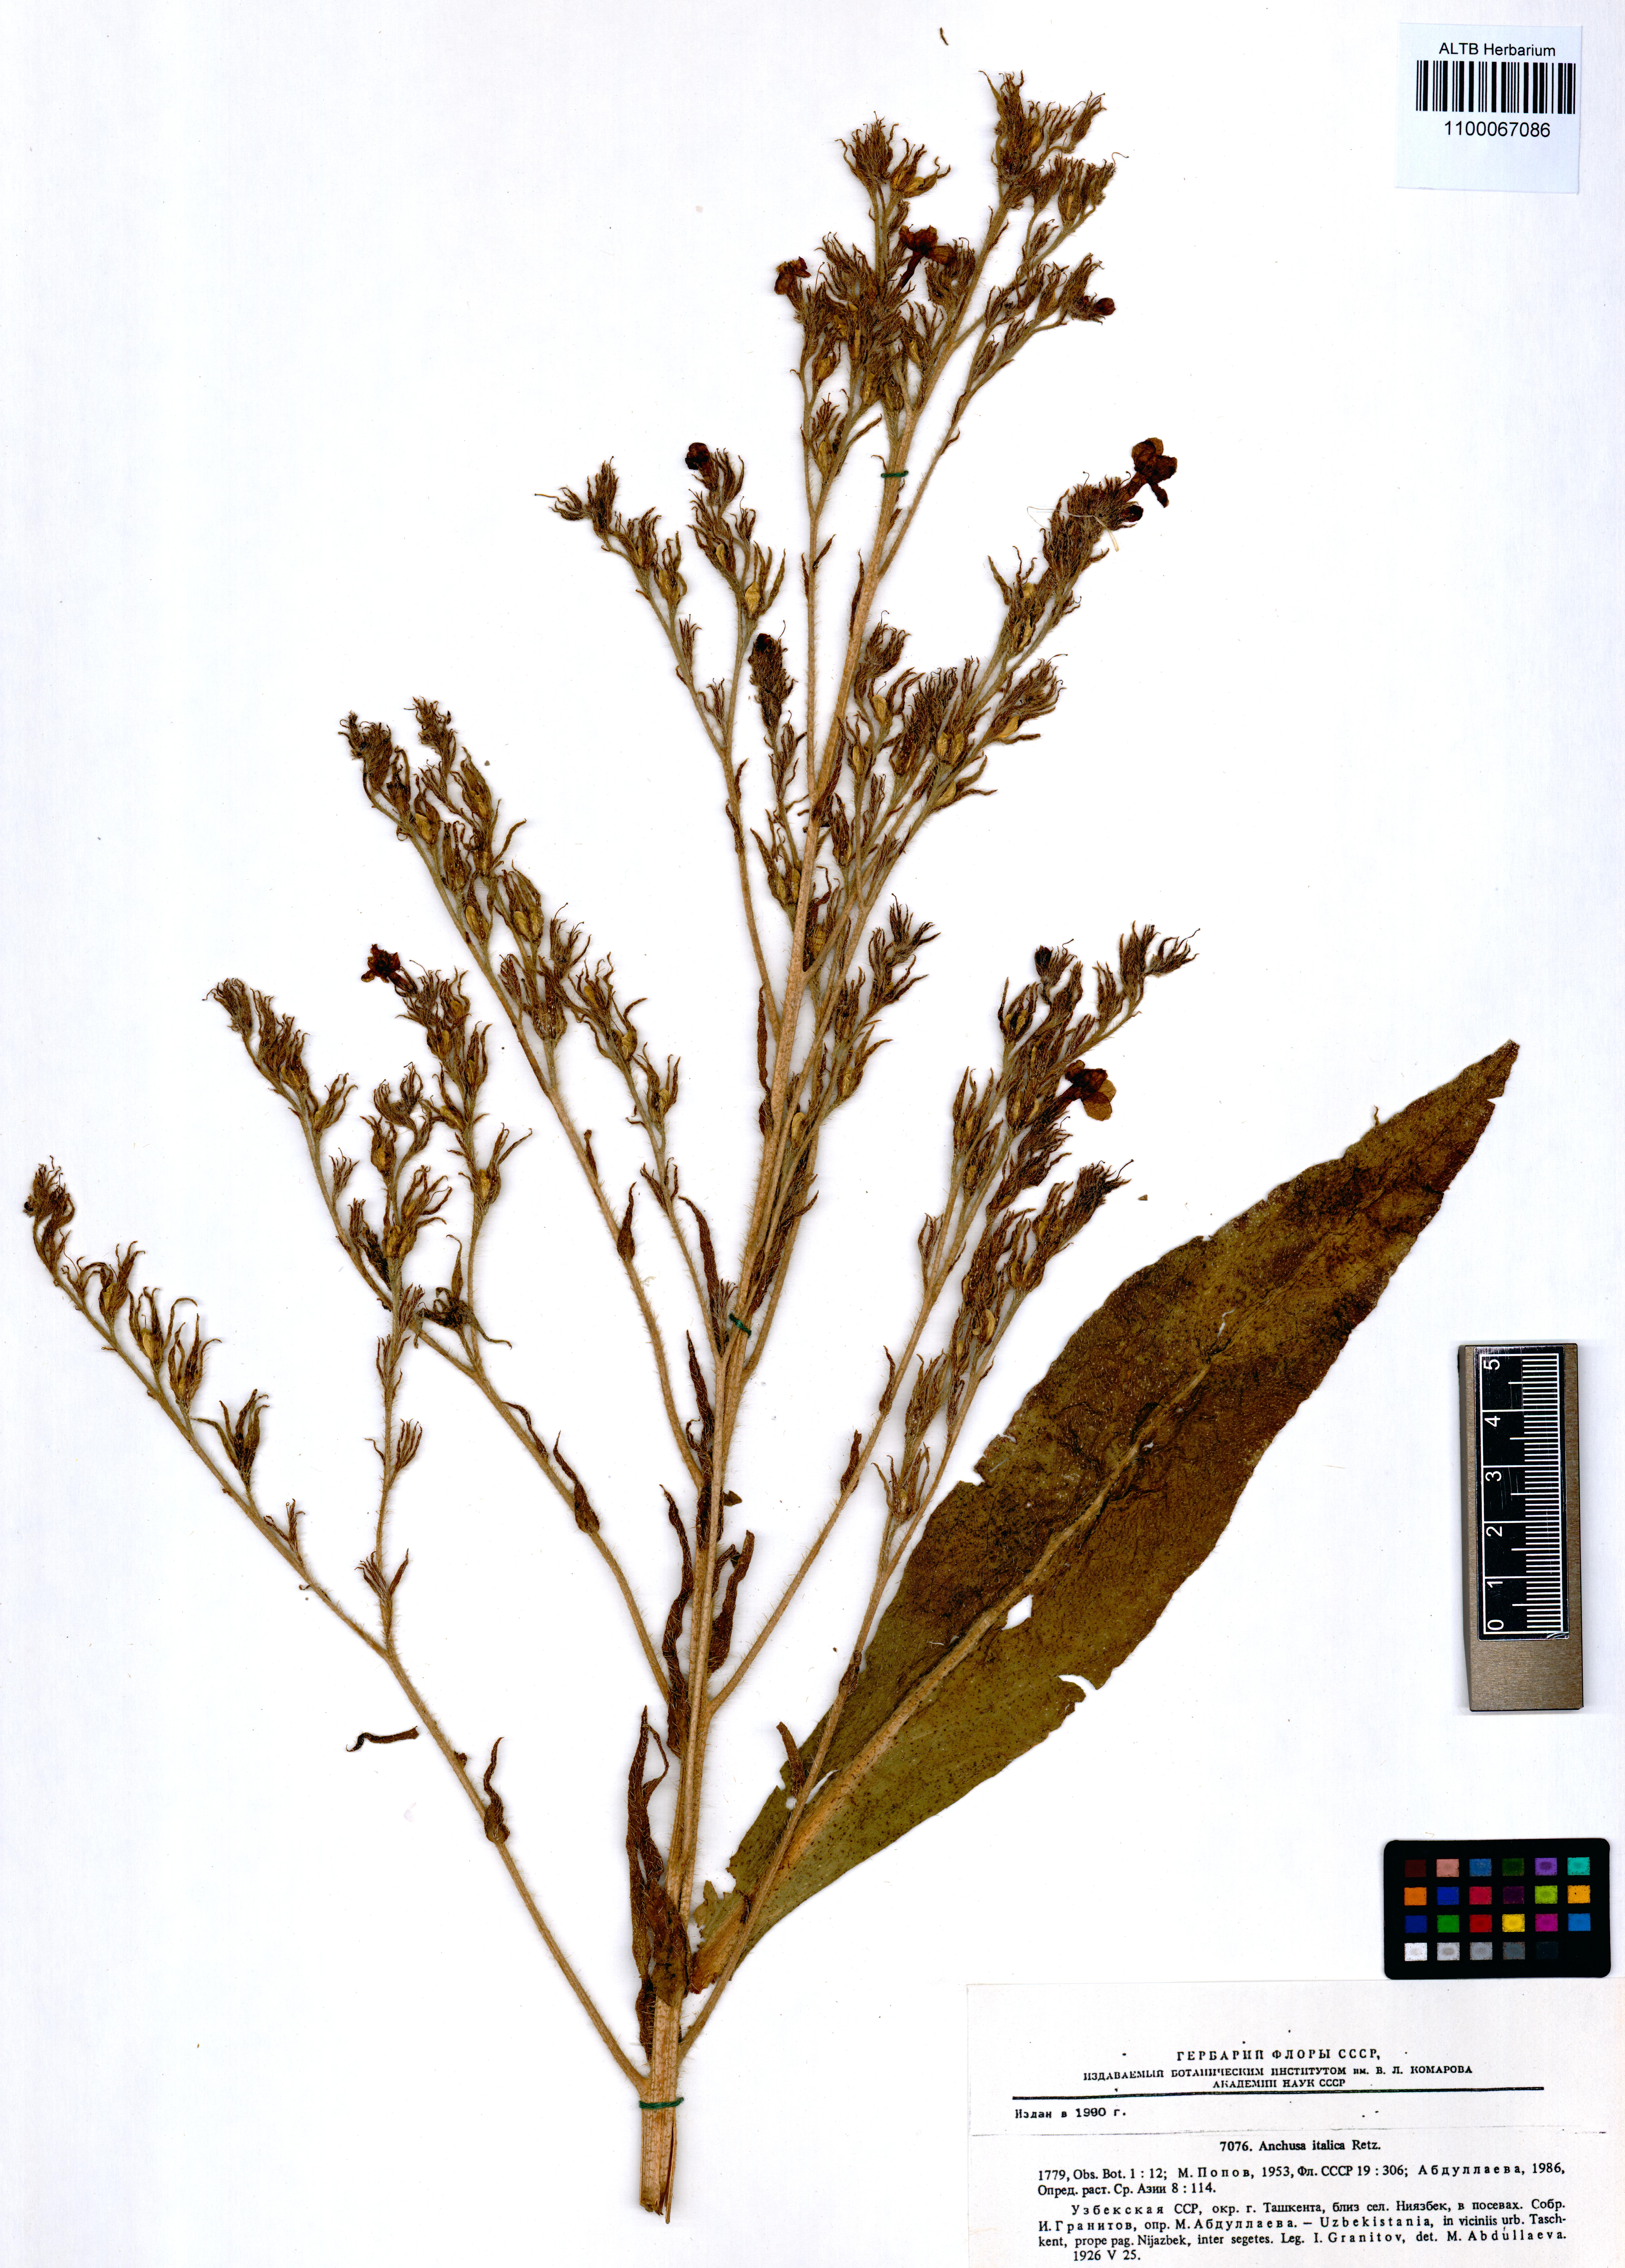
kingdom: Plantae
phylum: Tracheophyta
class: Magnoliopsida
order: Boraginales
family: Boraginaceae
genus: Anchusa
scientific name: Anchusa azurea
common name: Garden anchusa
